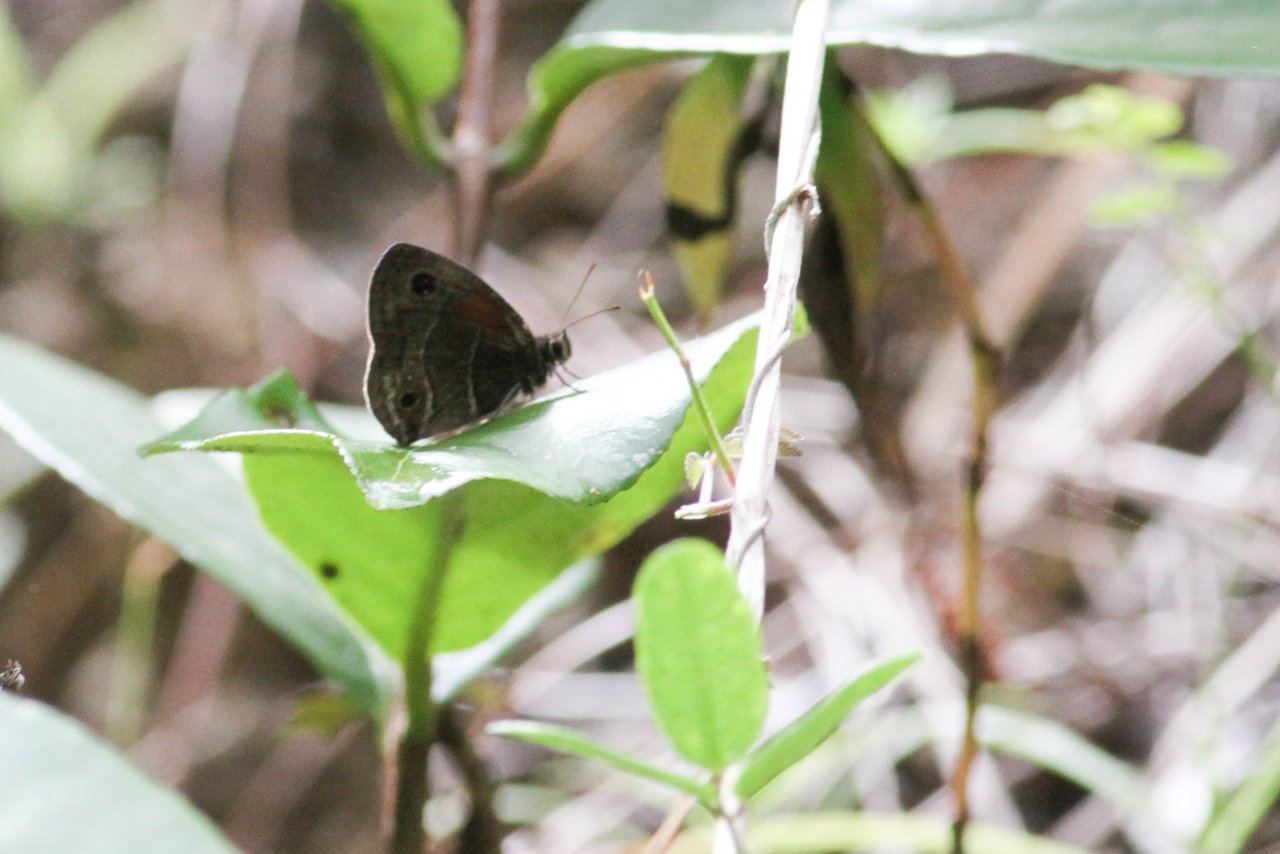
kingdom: Animalia
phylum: Arthropoda
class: Insecta
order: Lepidoptera
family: Nymphalidae
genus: Calisto
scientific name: Calisto obscura
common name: Obscure Calisto
